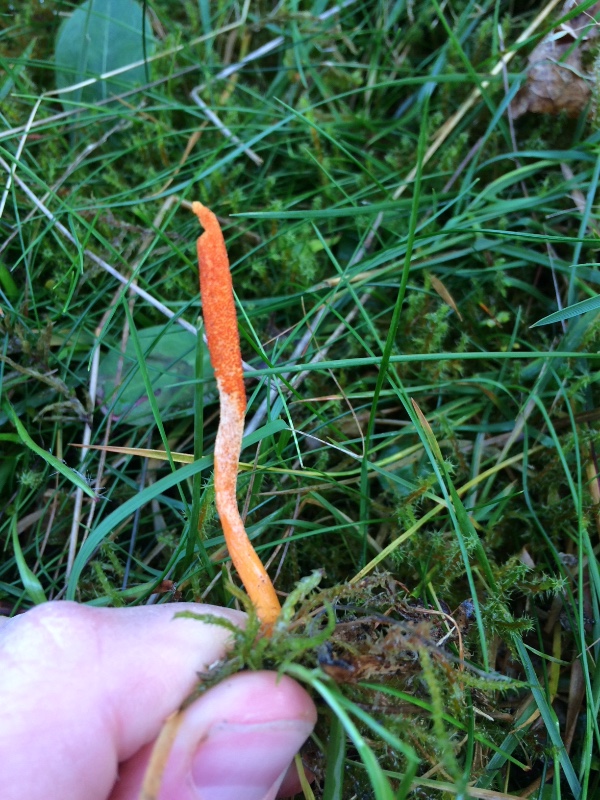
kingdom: Fungi
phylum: Ascomycota
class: Sordariomycetes
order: Hypocreales
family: Cordycipitaceae
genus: Cordyceps
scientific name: Cordyceps militaris
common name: puppe-snyltekølle
